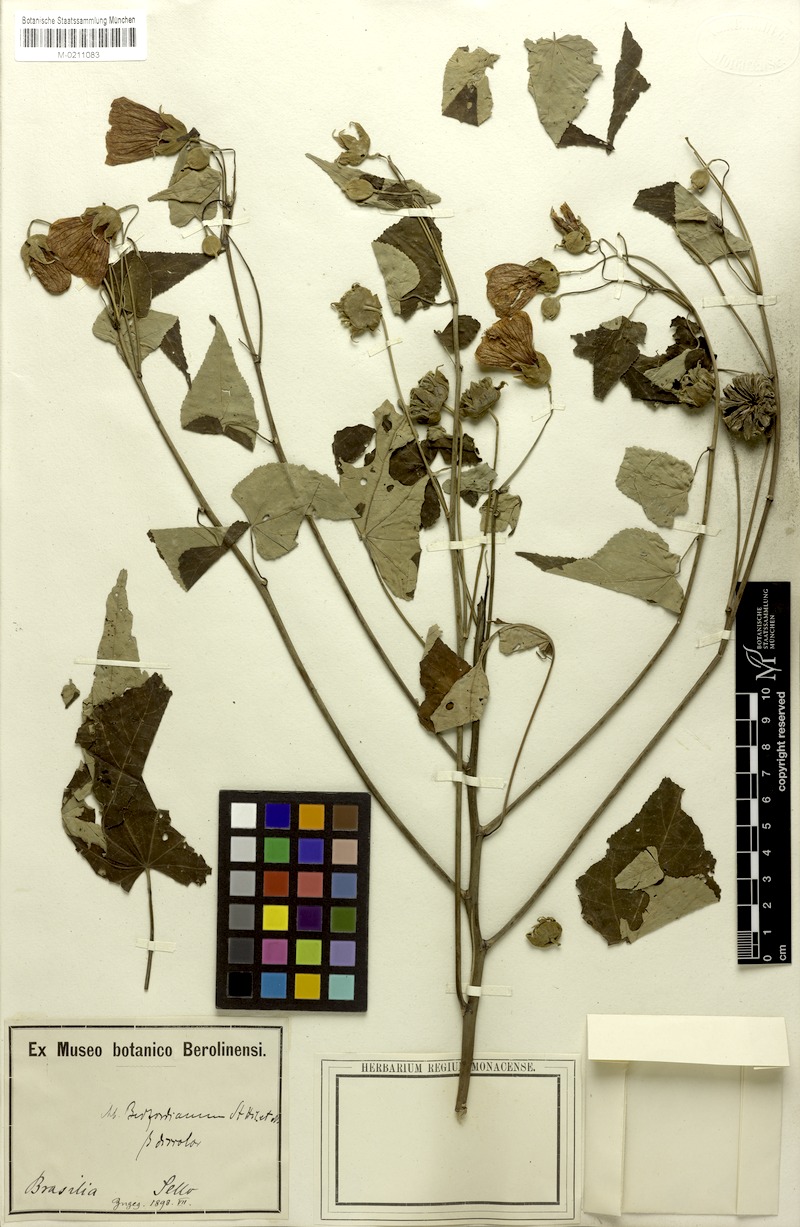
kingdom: Plantae
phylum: Tracheophyta
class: Magnoliopsida
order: Malvales
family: Malvaceae
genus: Callianthe
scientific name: Callianthe bedfordiana
